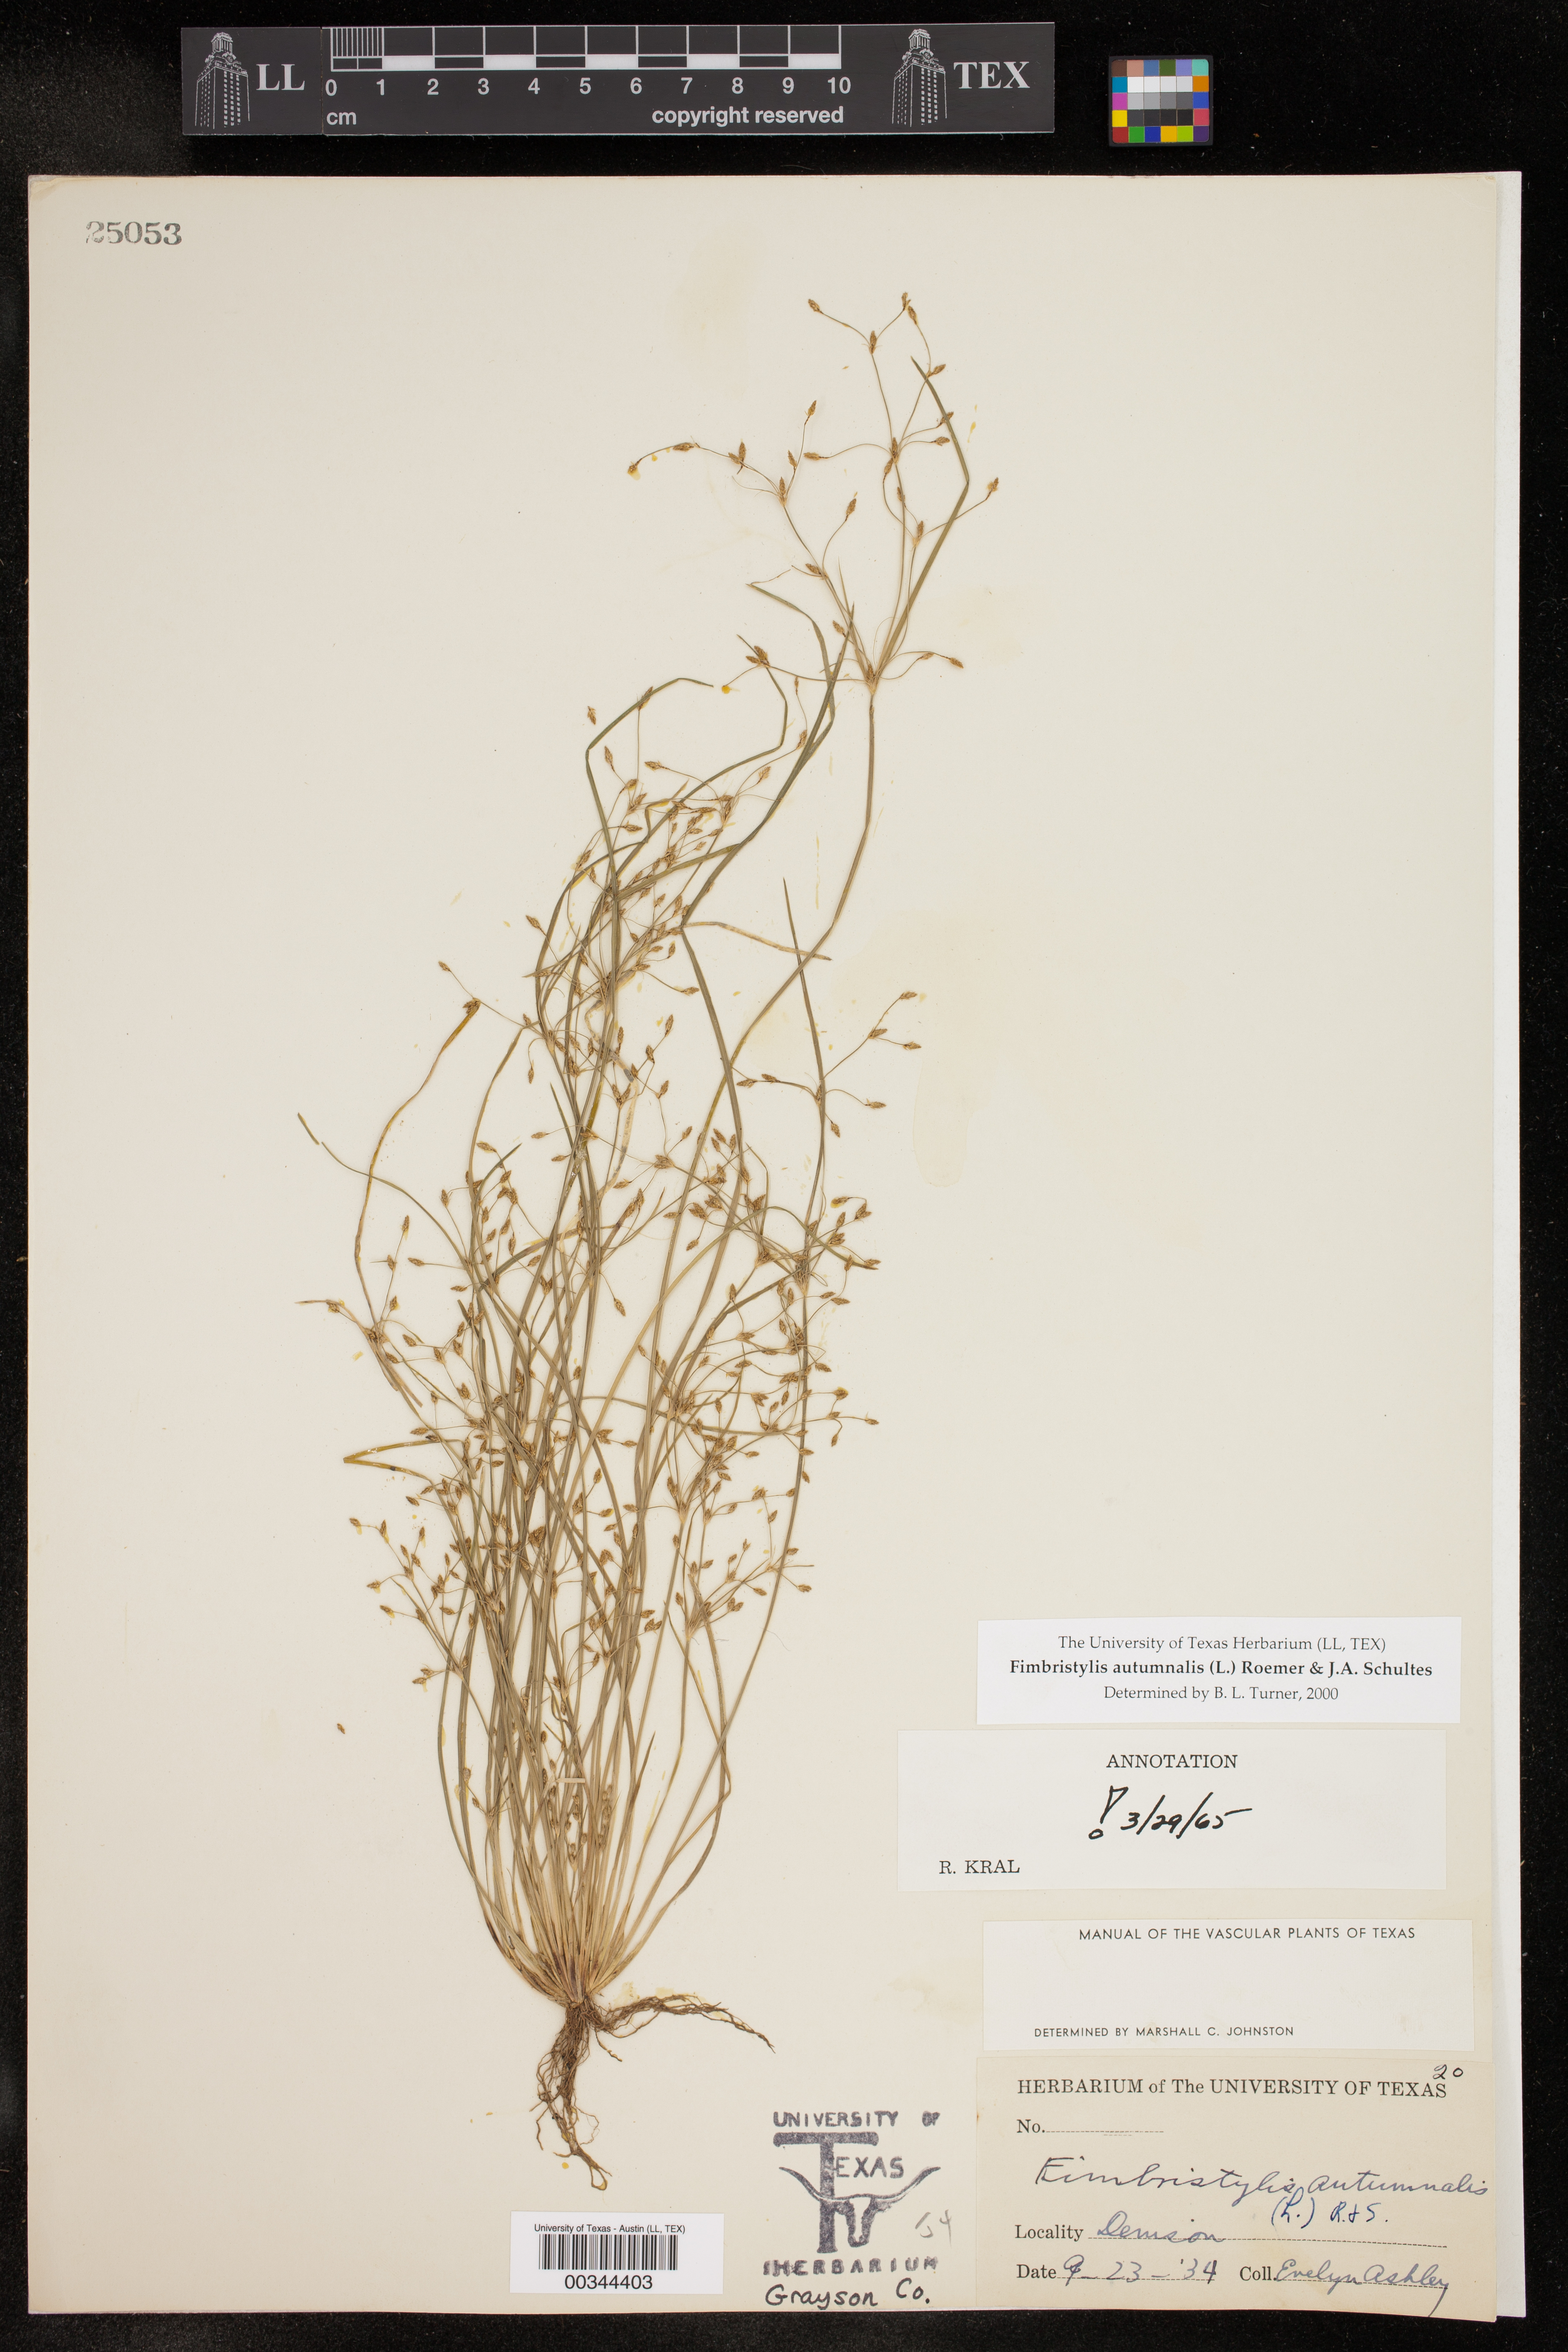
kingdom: Plantae
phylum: Tracheophyta
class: Liliopsida
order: Poales
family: Cyperaceae
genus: Fimbristylis
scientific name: Fimbristylis autumnalis
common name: Slender fimbristylis
